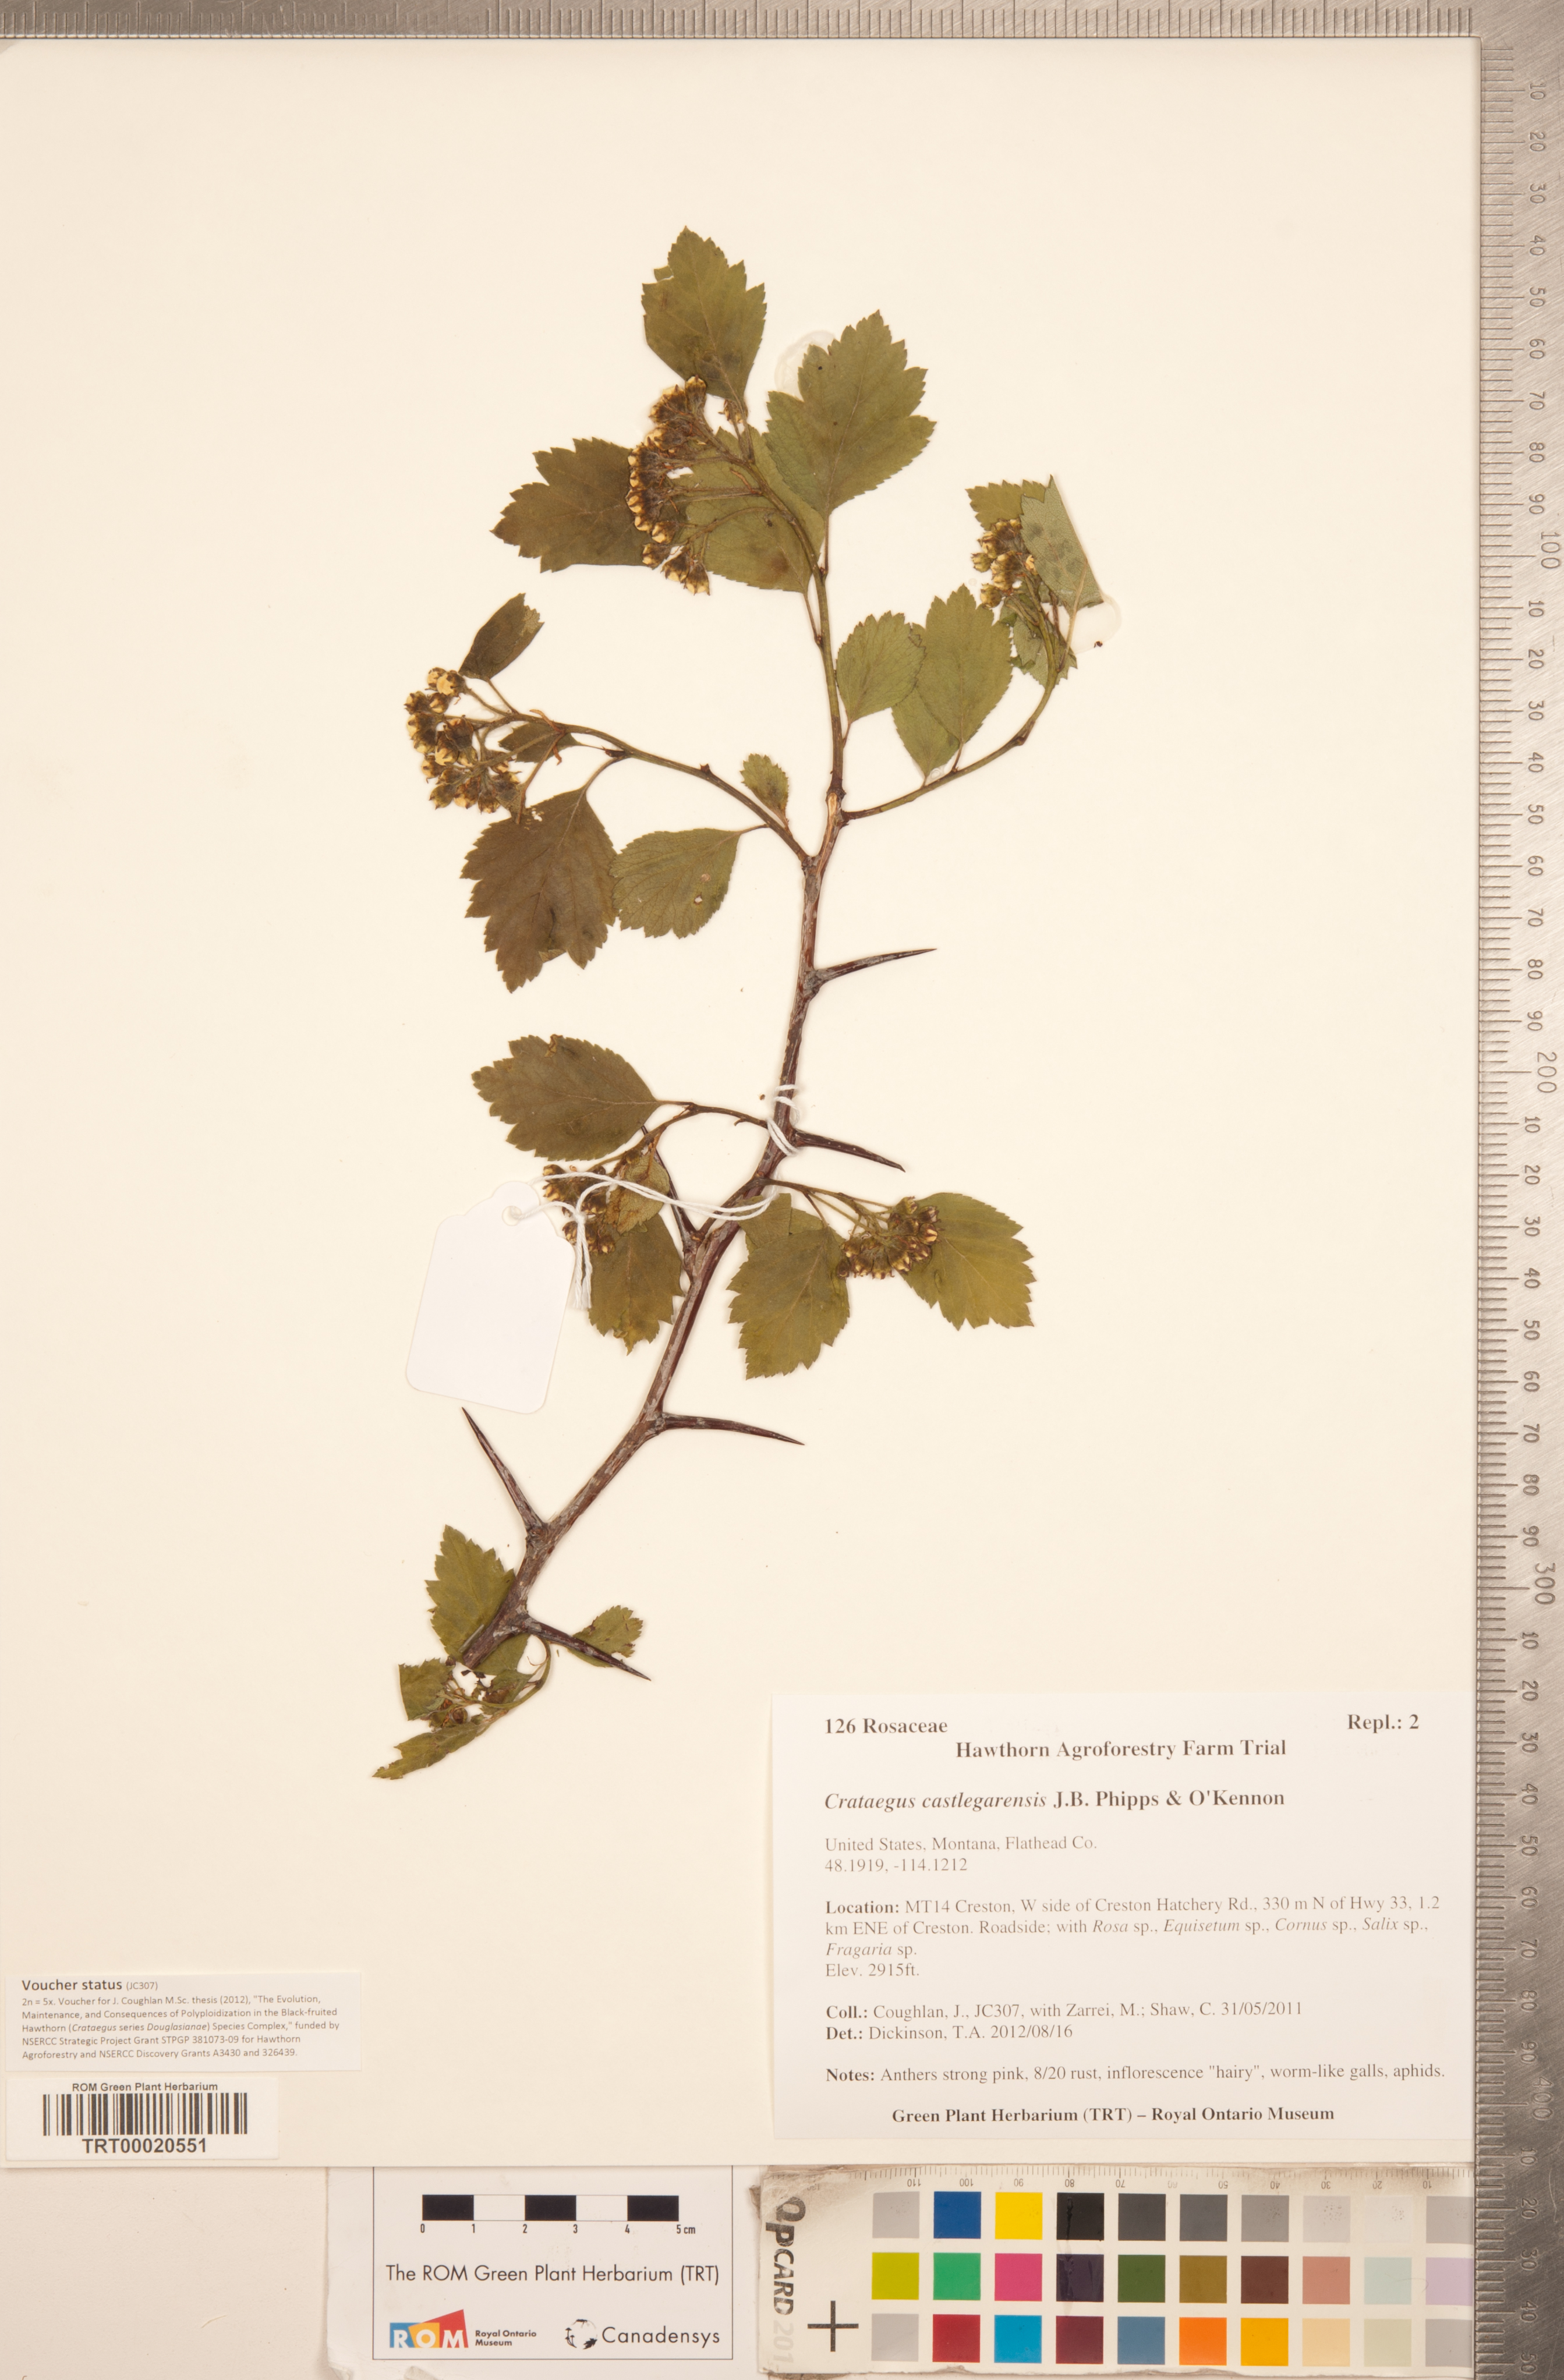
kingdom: Plantae
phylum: Tracheophyta
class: Magnoliopsida
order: Rosales
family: Rosaceae
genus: Crataegus
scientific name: Crataegus castlegarensis
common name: Castlegar hawthorn
